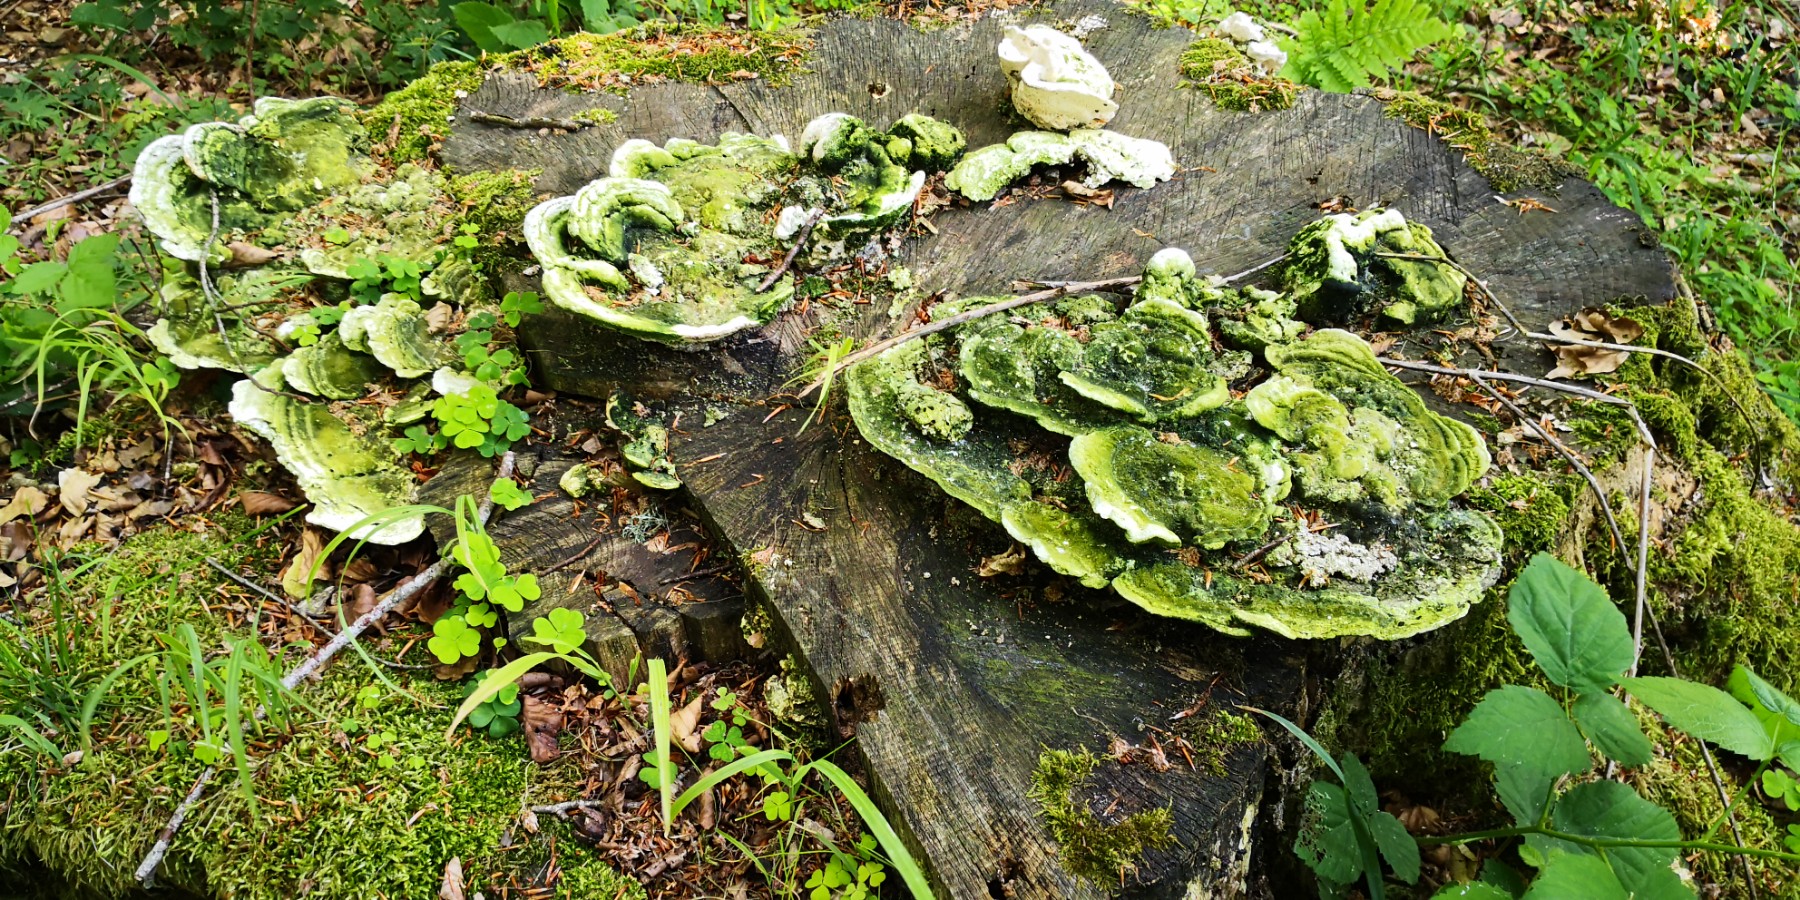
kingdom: Fungi
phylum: Basidiomycota
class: Agaricomycetes
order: Polyporales
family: Polyporaceae
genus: Trametes
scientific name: Trametes gibbosa
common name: puklet læderporesvamp
